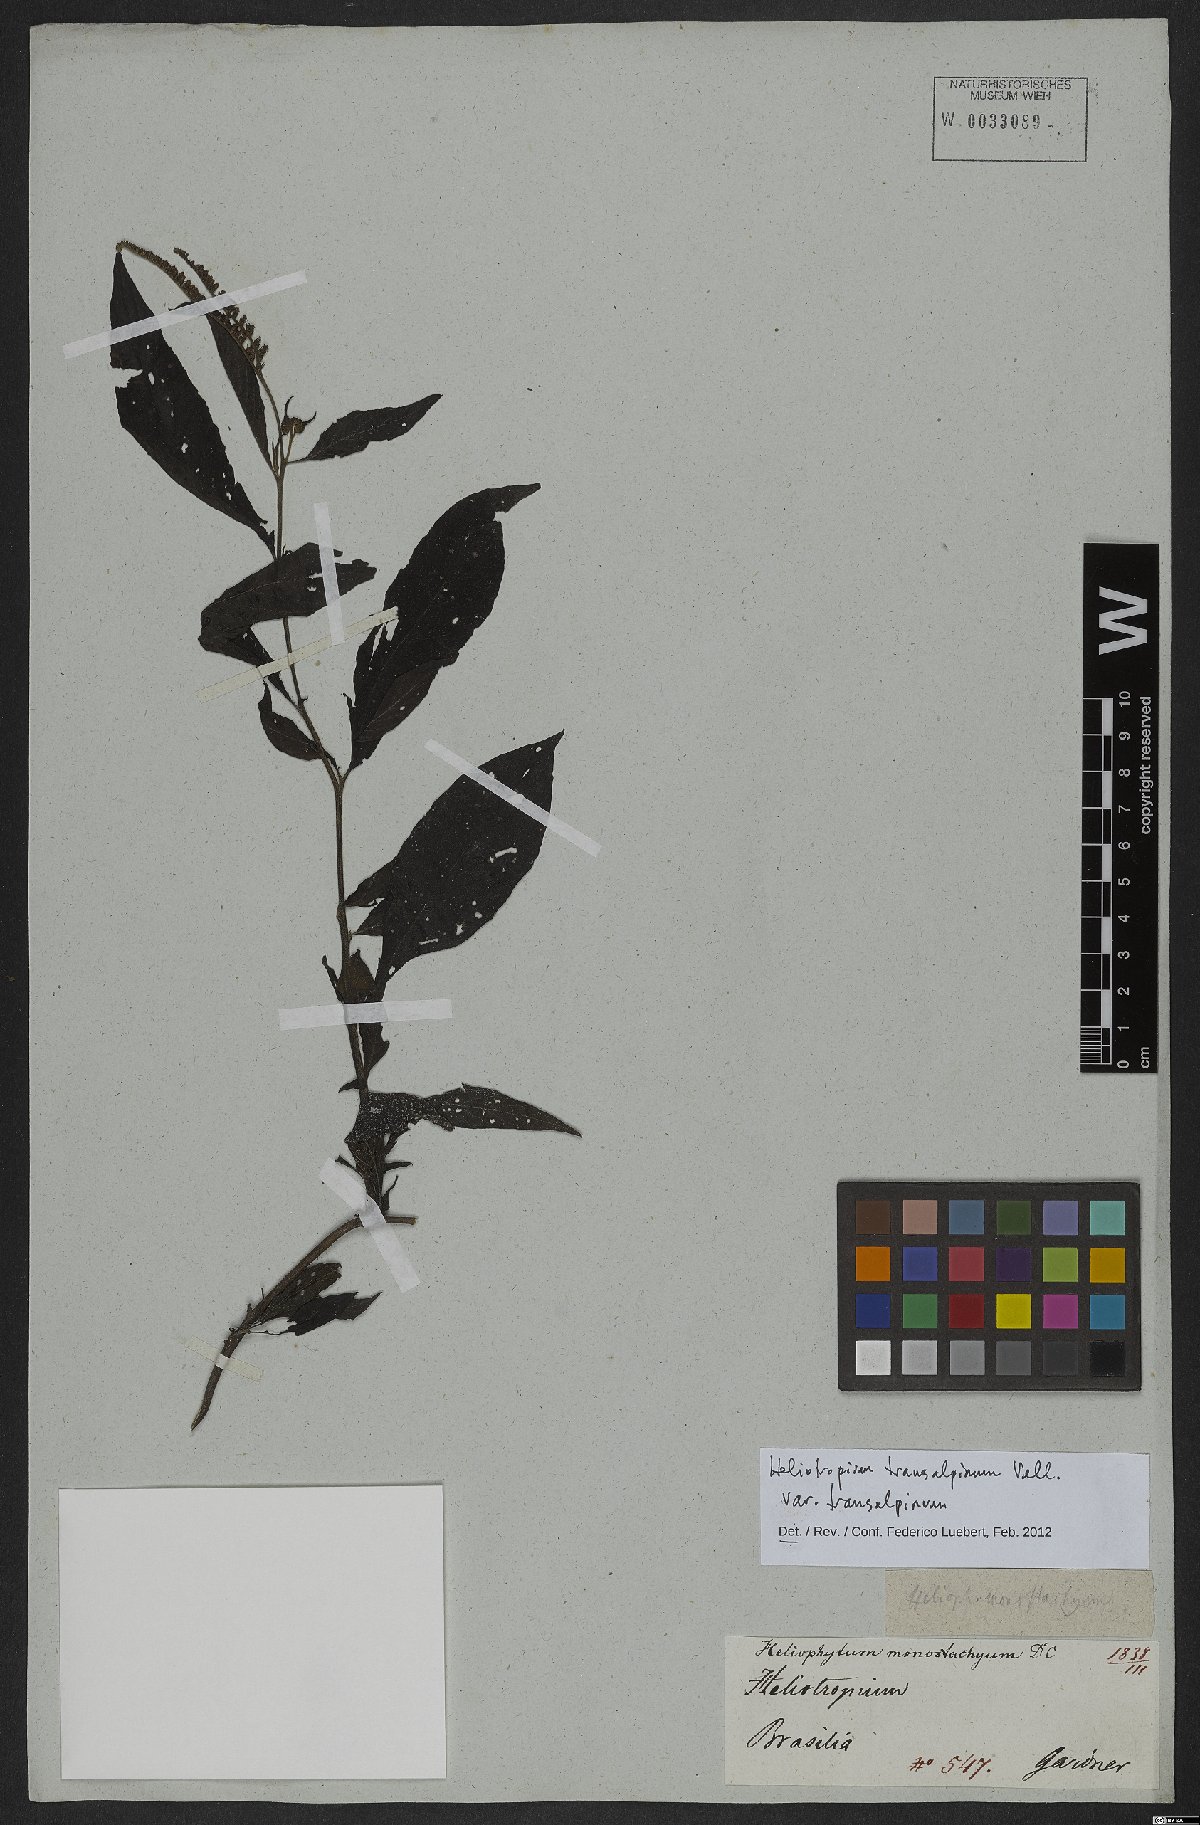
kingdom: Plantae
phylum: Tracheophyta
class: Magnoliopsida
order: Boraginales
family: Heliotropiaceae
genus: Heliotropium
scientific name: Heliotropium transalpinum
